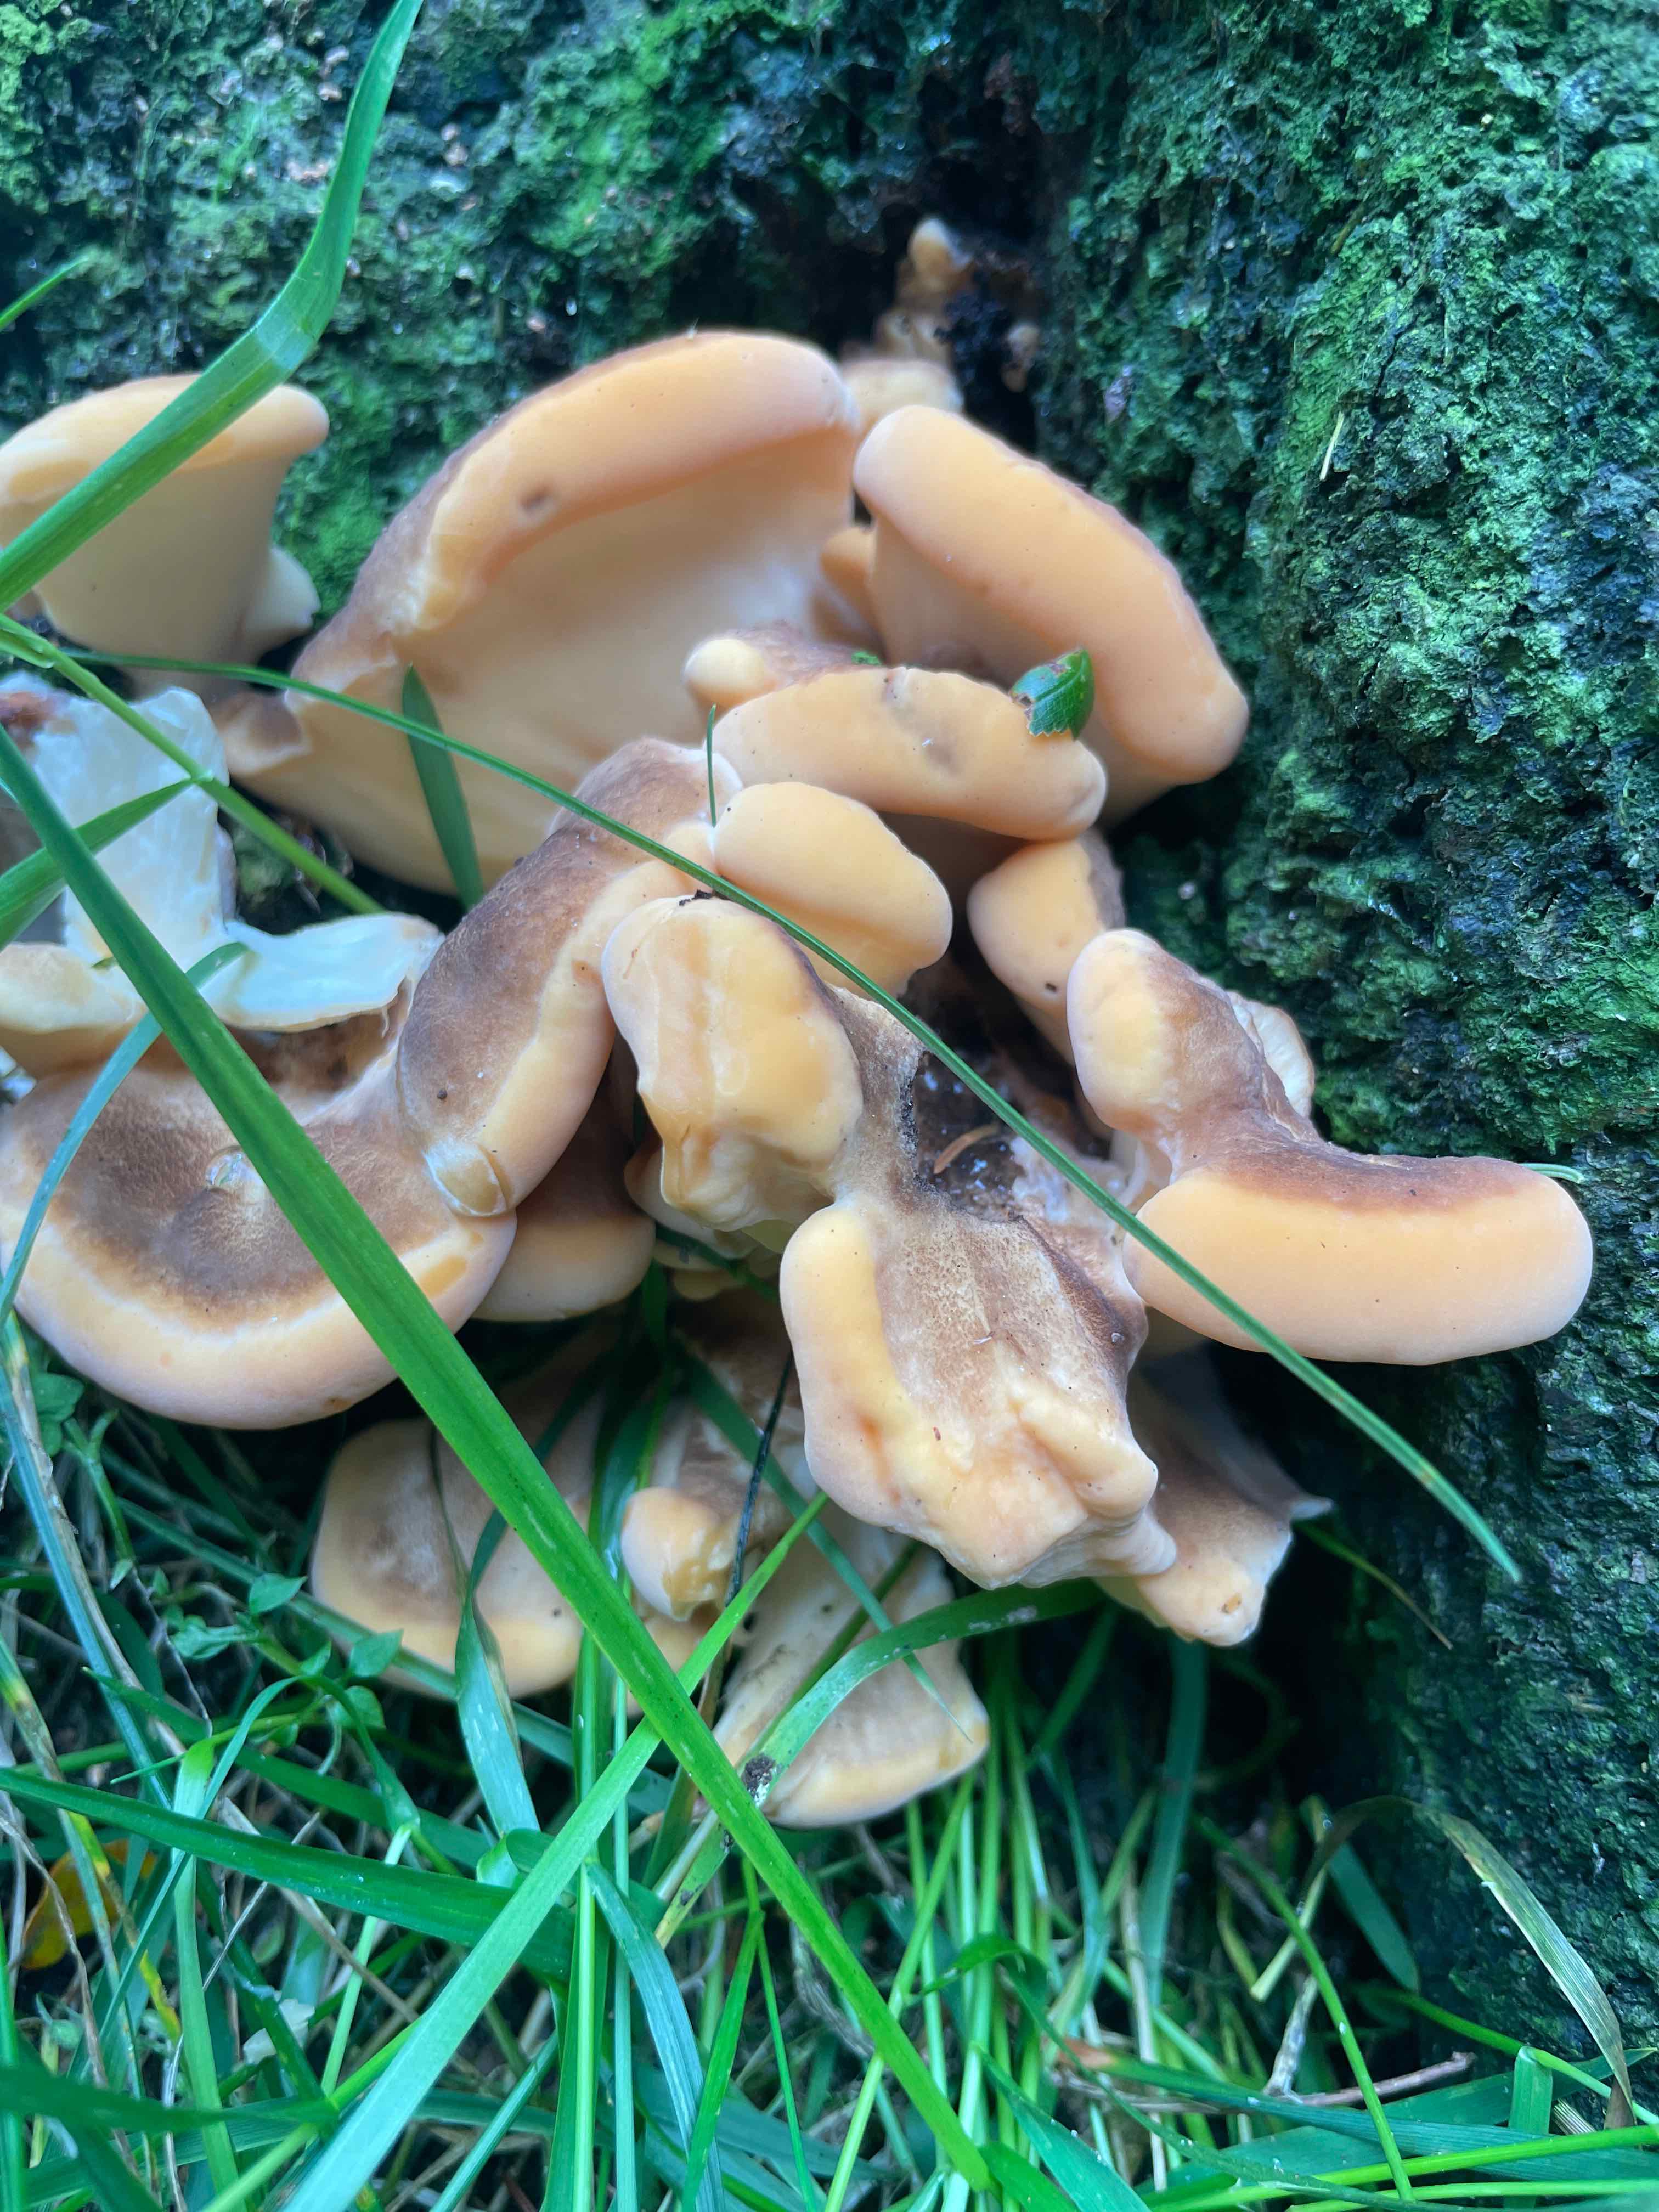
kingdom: Fungi
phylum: Basidiomycota
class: Agaricomycetes
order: Polyporales
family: Meripilaceae
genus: Meripilus
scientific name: Meripilus giganteus
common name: kæmpeporesvamp
